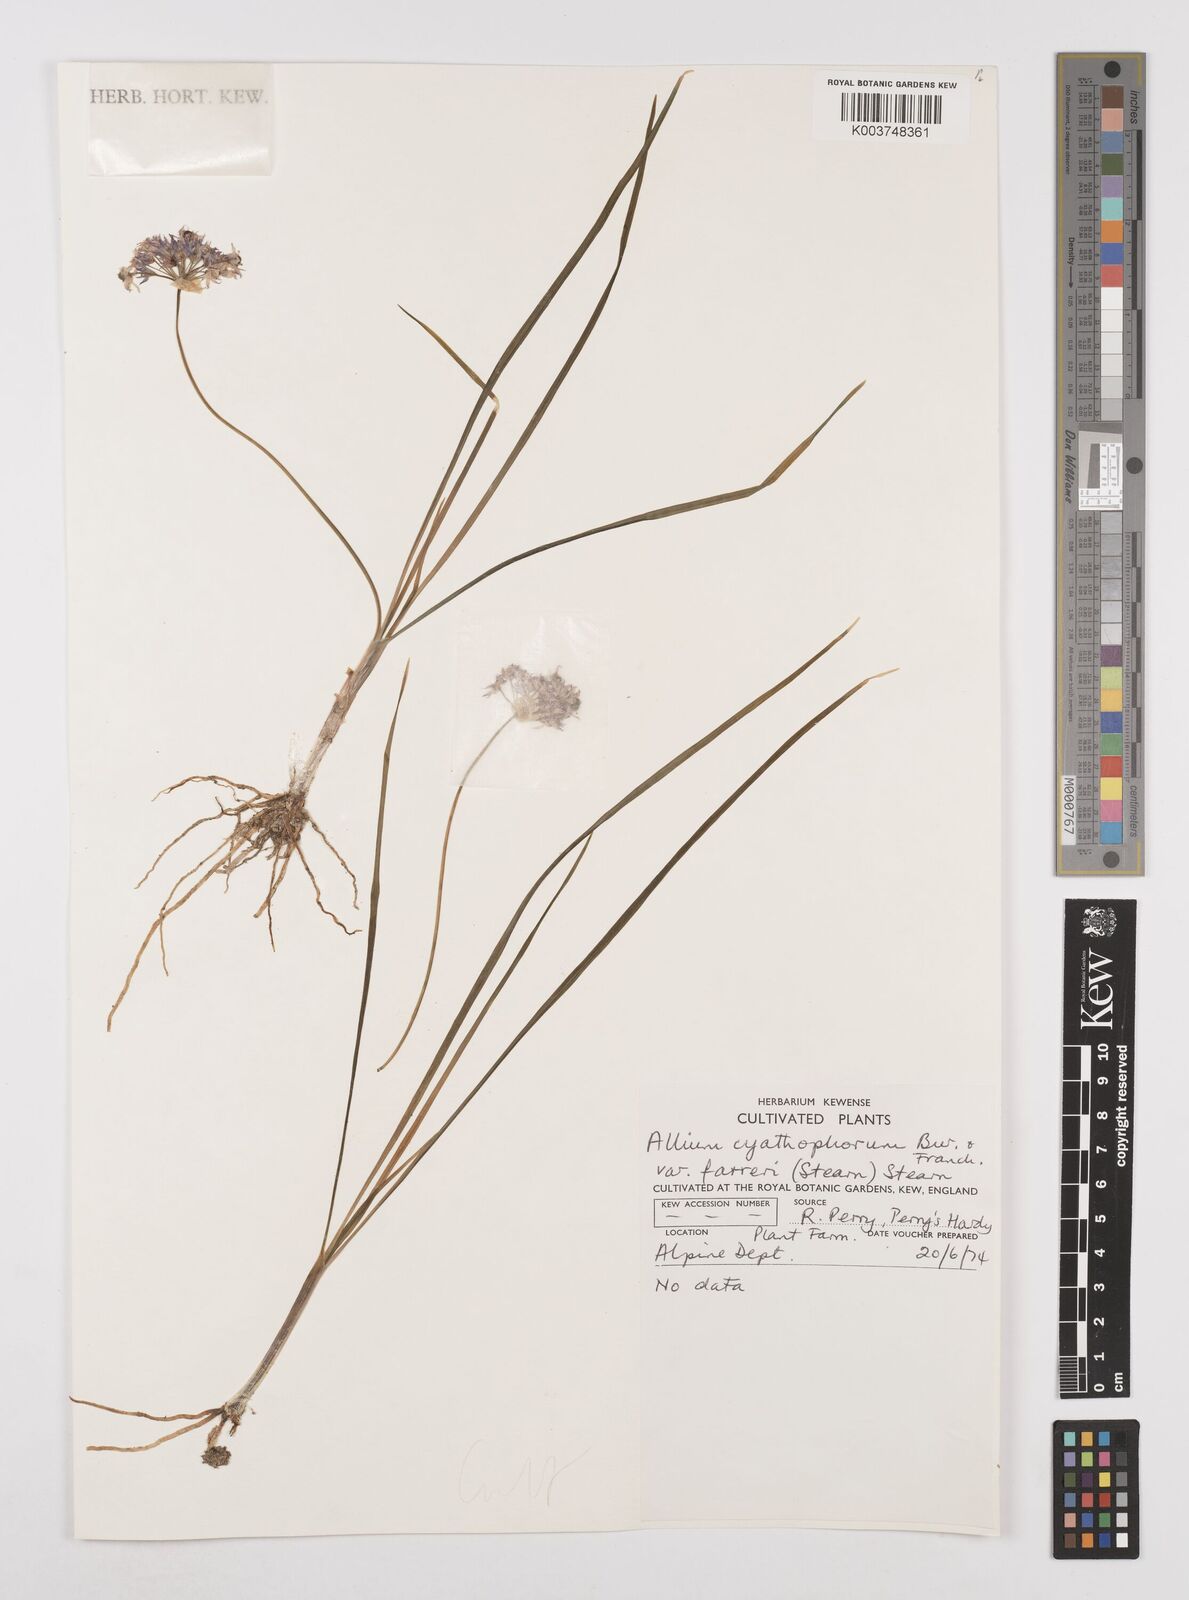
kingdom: Plantae
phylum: Tracheophyta
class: Liliopsida
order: Asparagales
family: Amaryllidaceae
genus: Allium
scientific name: Allium farreri
